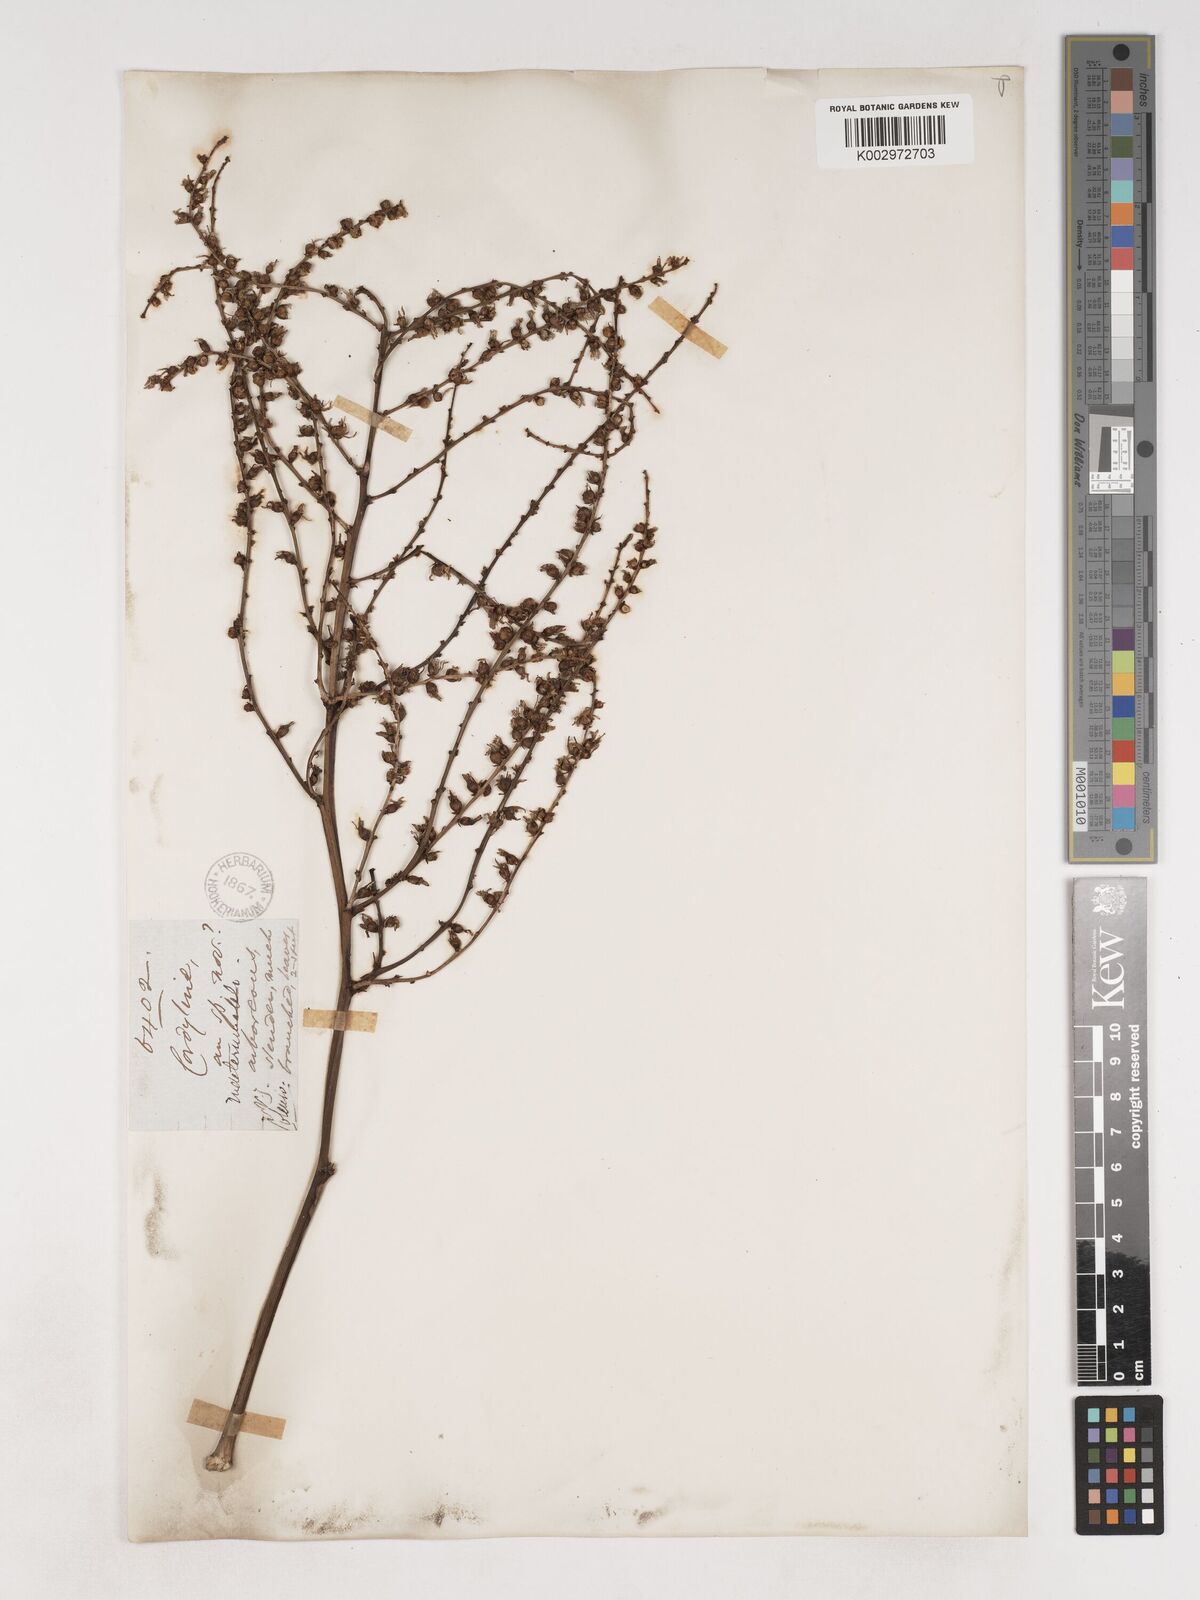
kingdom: Plantae
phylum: Tracheophyta
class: Liliopsida
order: Asparagales
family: Asparagaceae
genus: Cordyline
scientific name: Cordyline pumilio
